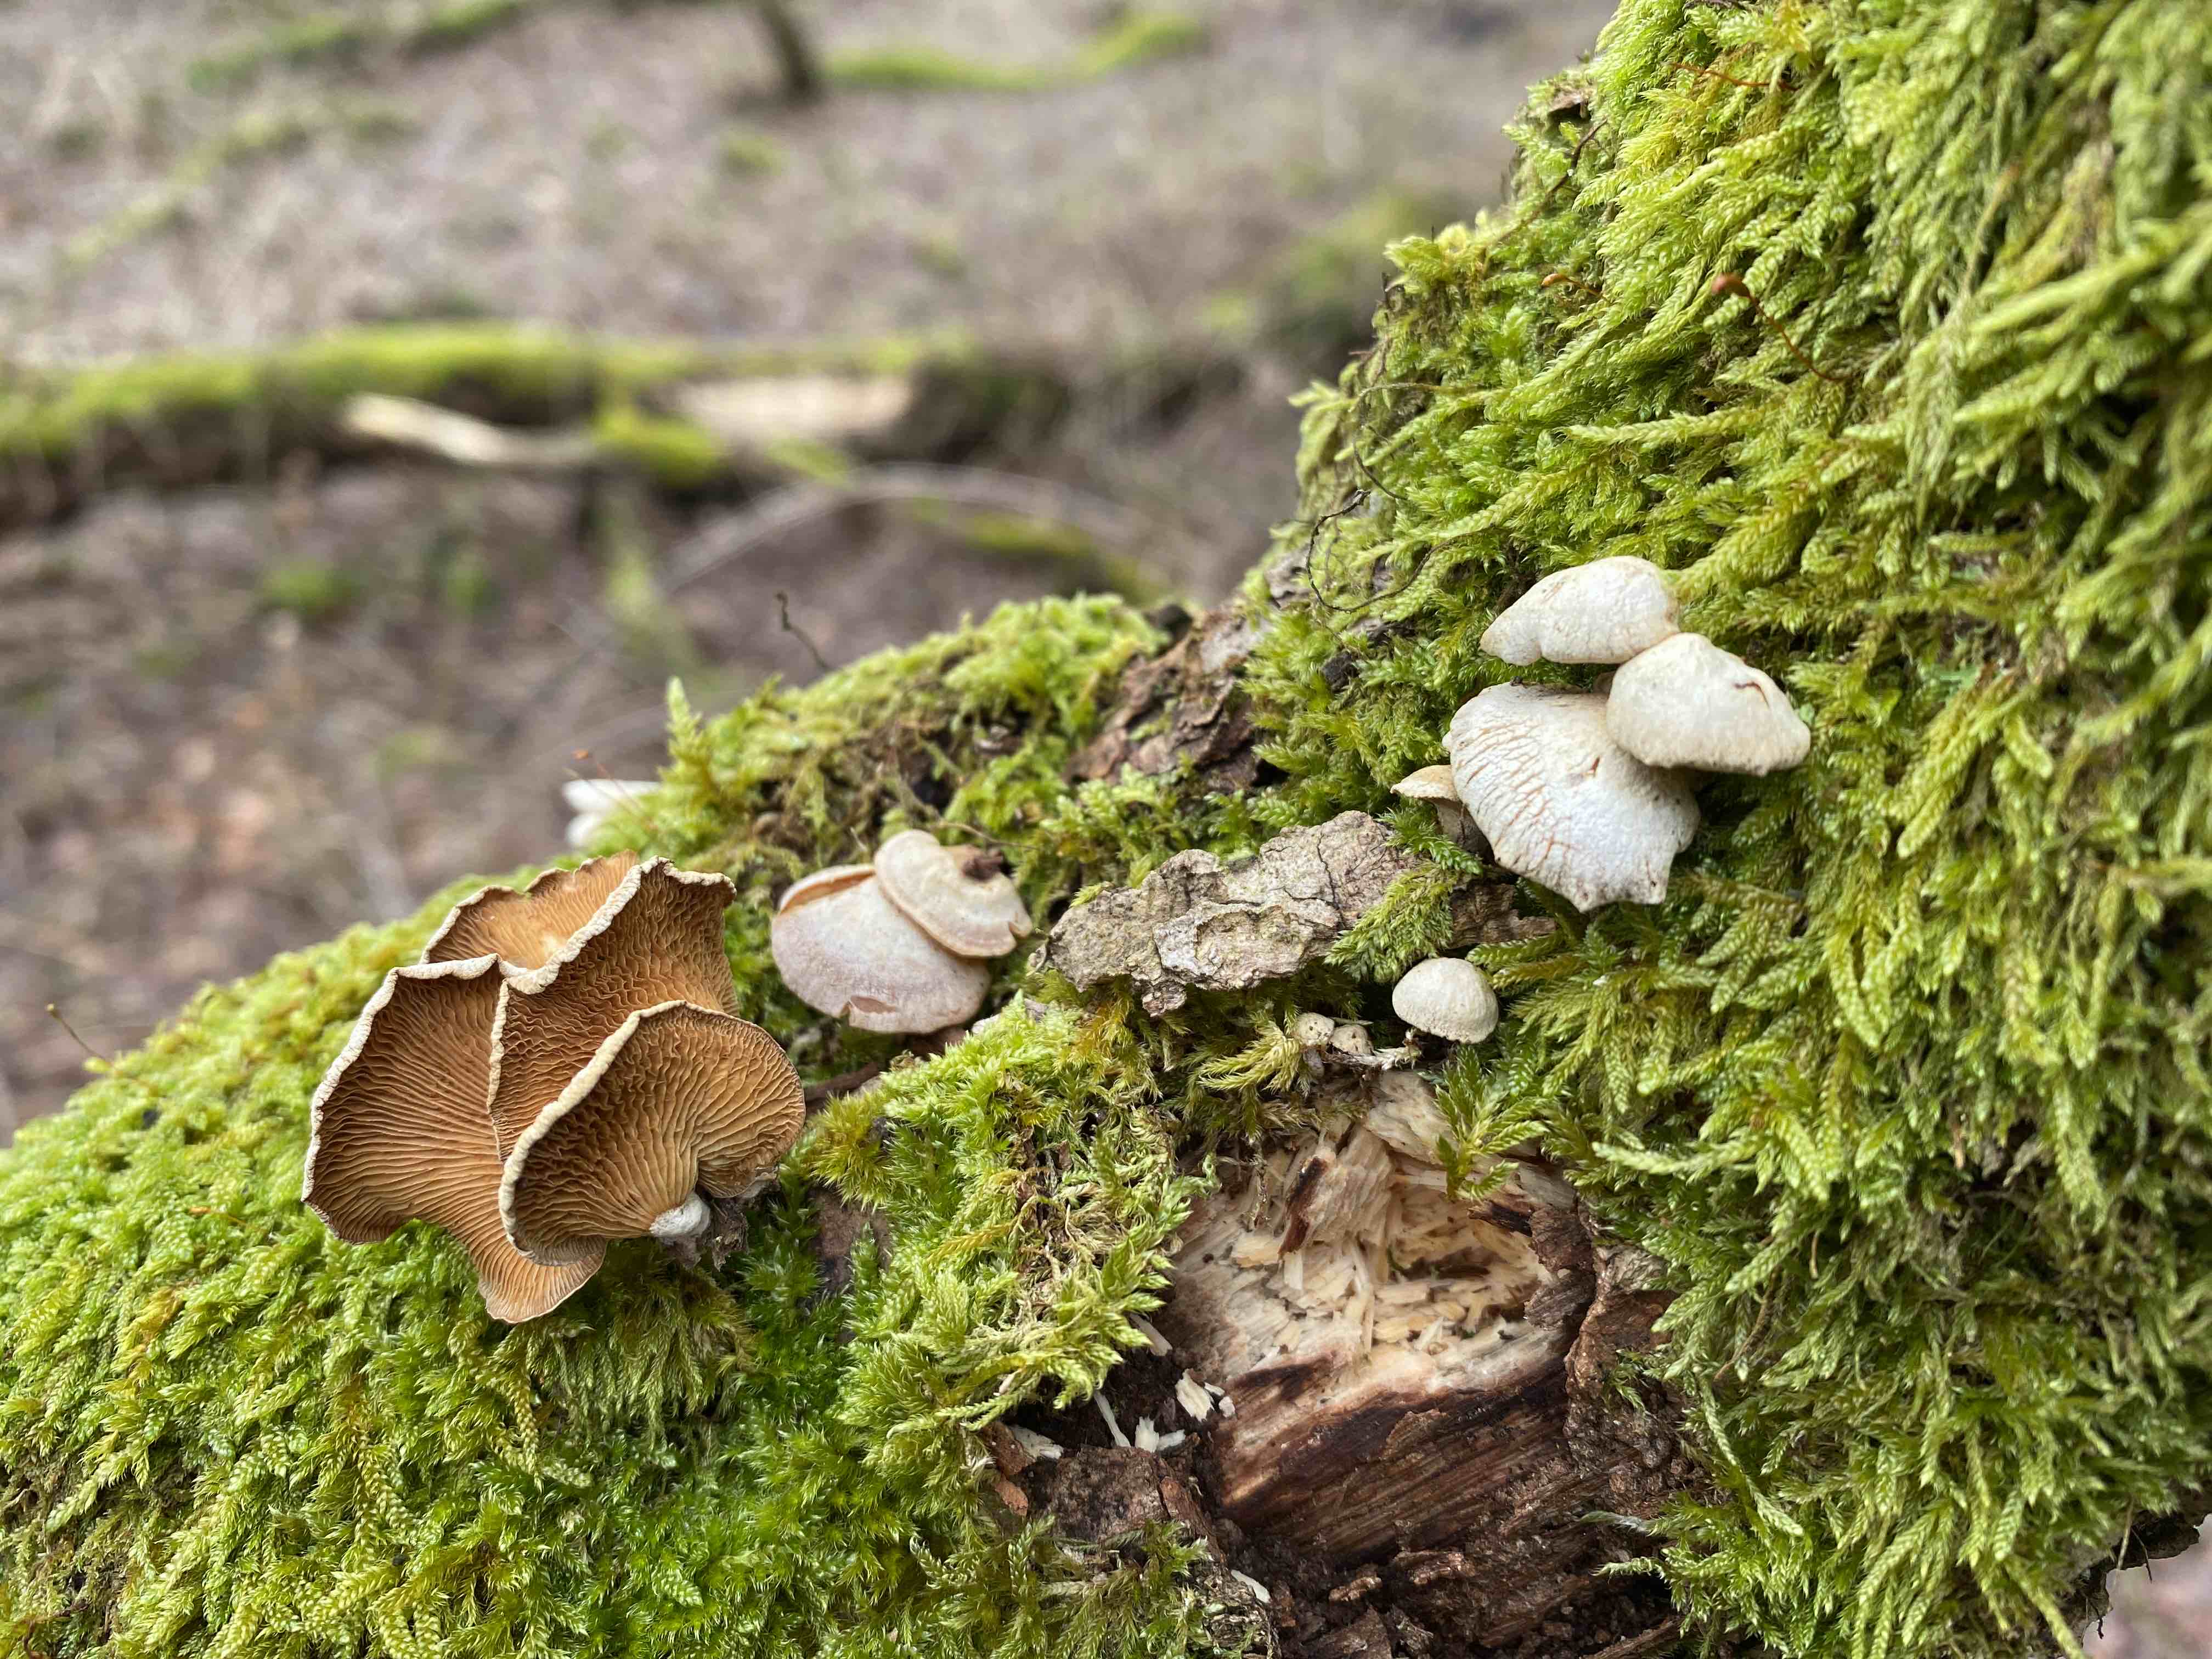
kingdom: Fungi
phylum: Basidiomycota
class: Agaricomycetes
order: Agaricales
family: Mycenaceae
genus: Panellus
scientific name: Panellus stipticus
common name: kliddet epaulethat
